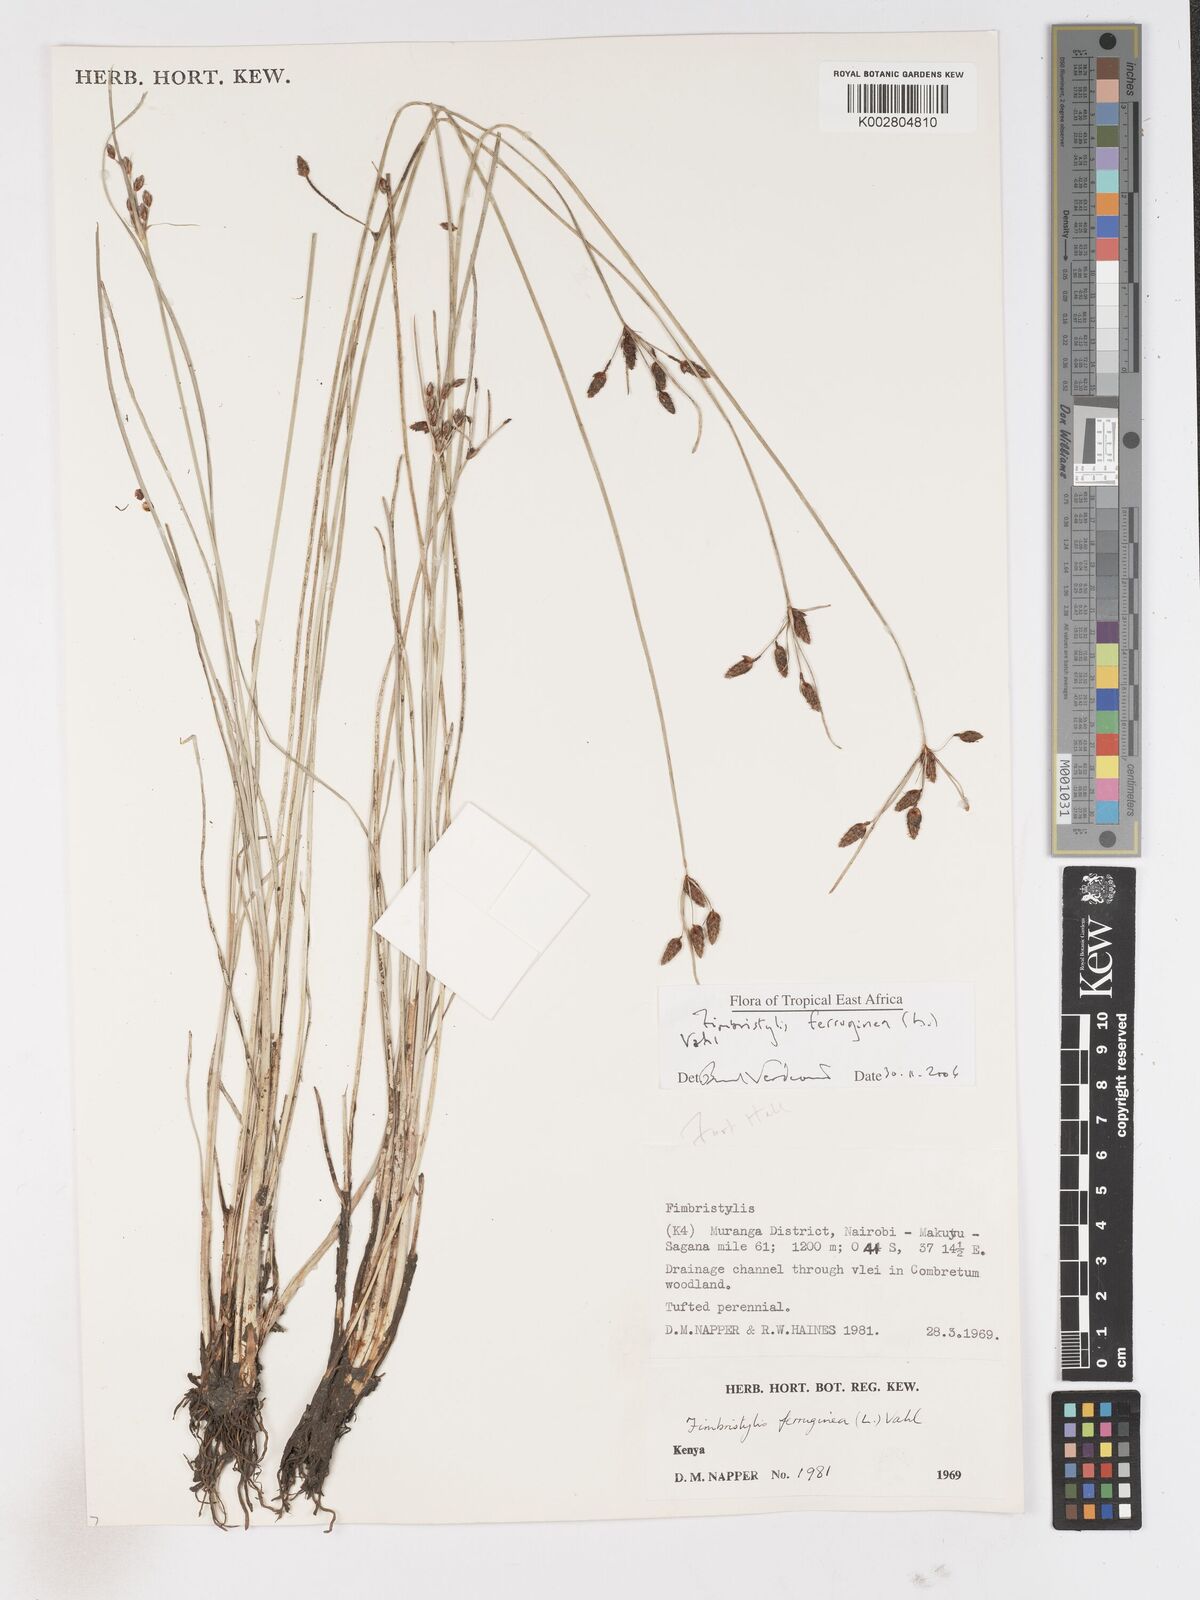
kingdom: Plantae
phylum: Tracheophyta
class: Liliopsida
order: Poales
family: Cyperaceae
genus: Fimbristylis
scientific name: Fimbristylis ferruginea
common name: West indian fimbry
